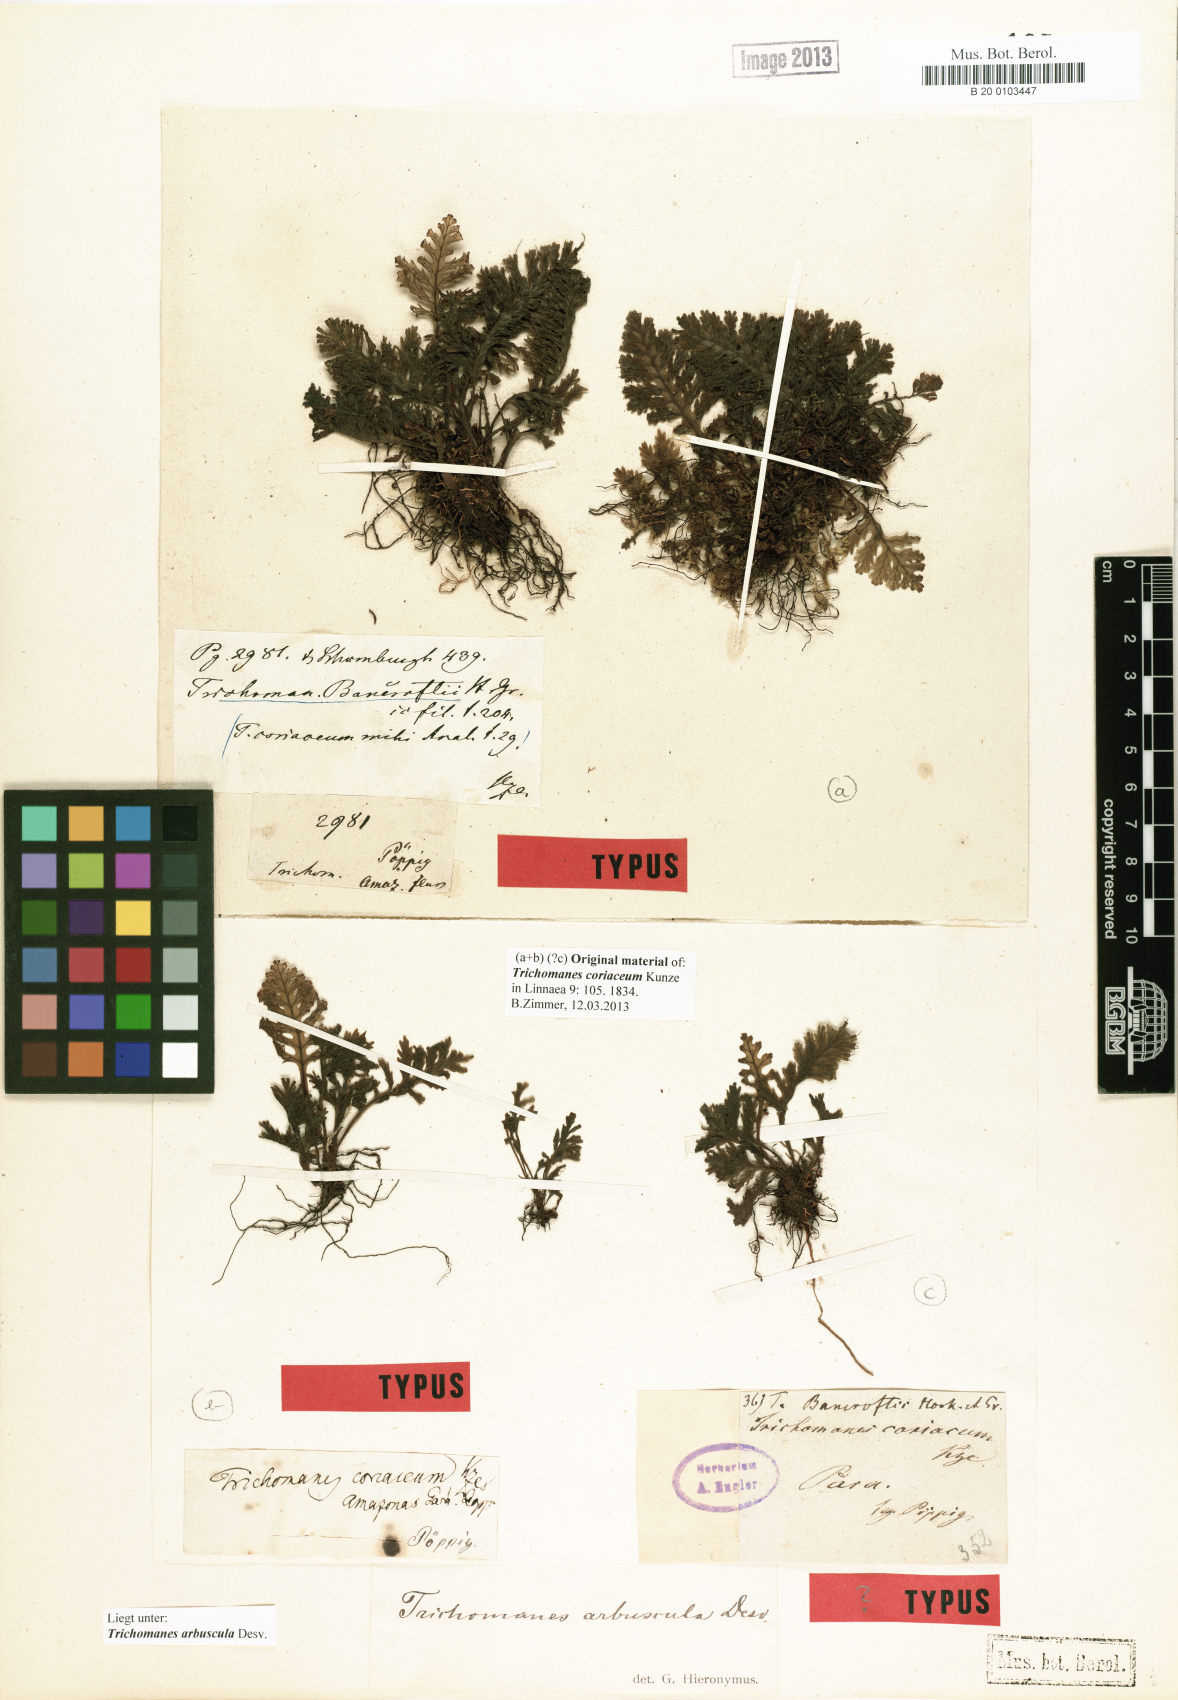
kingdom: Plantae
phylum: Tracheophyta
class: Polypodiopsida
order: Hymenophyllales
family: Hymenophyllaceae
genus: Trichomanes
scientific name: Trichomanes arbuscula
